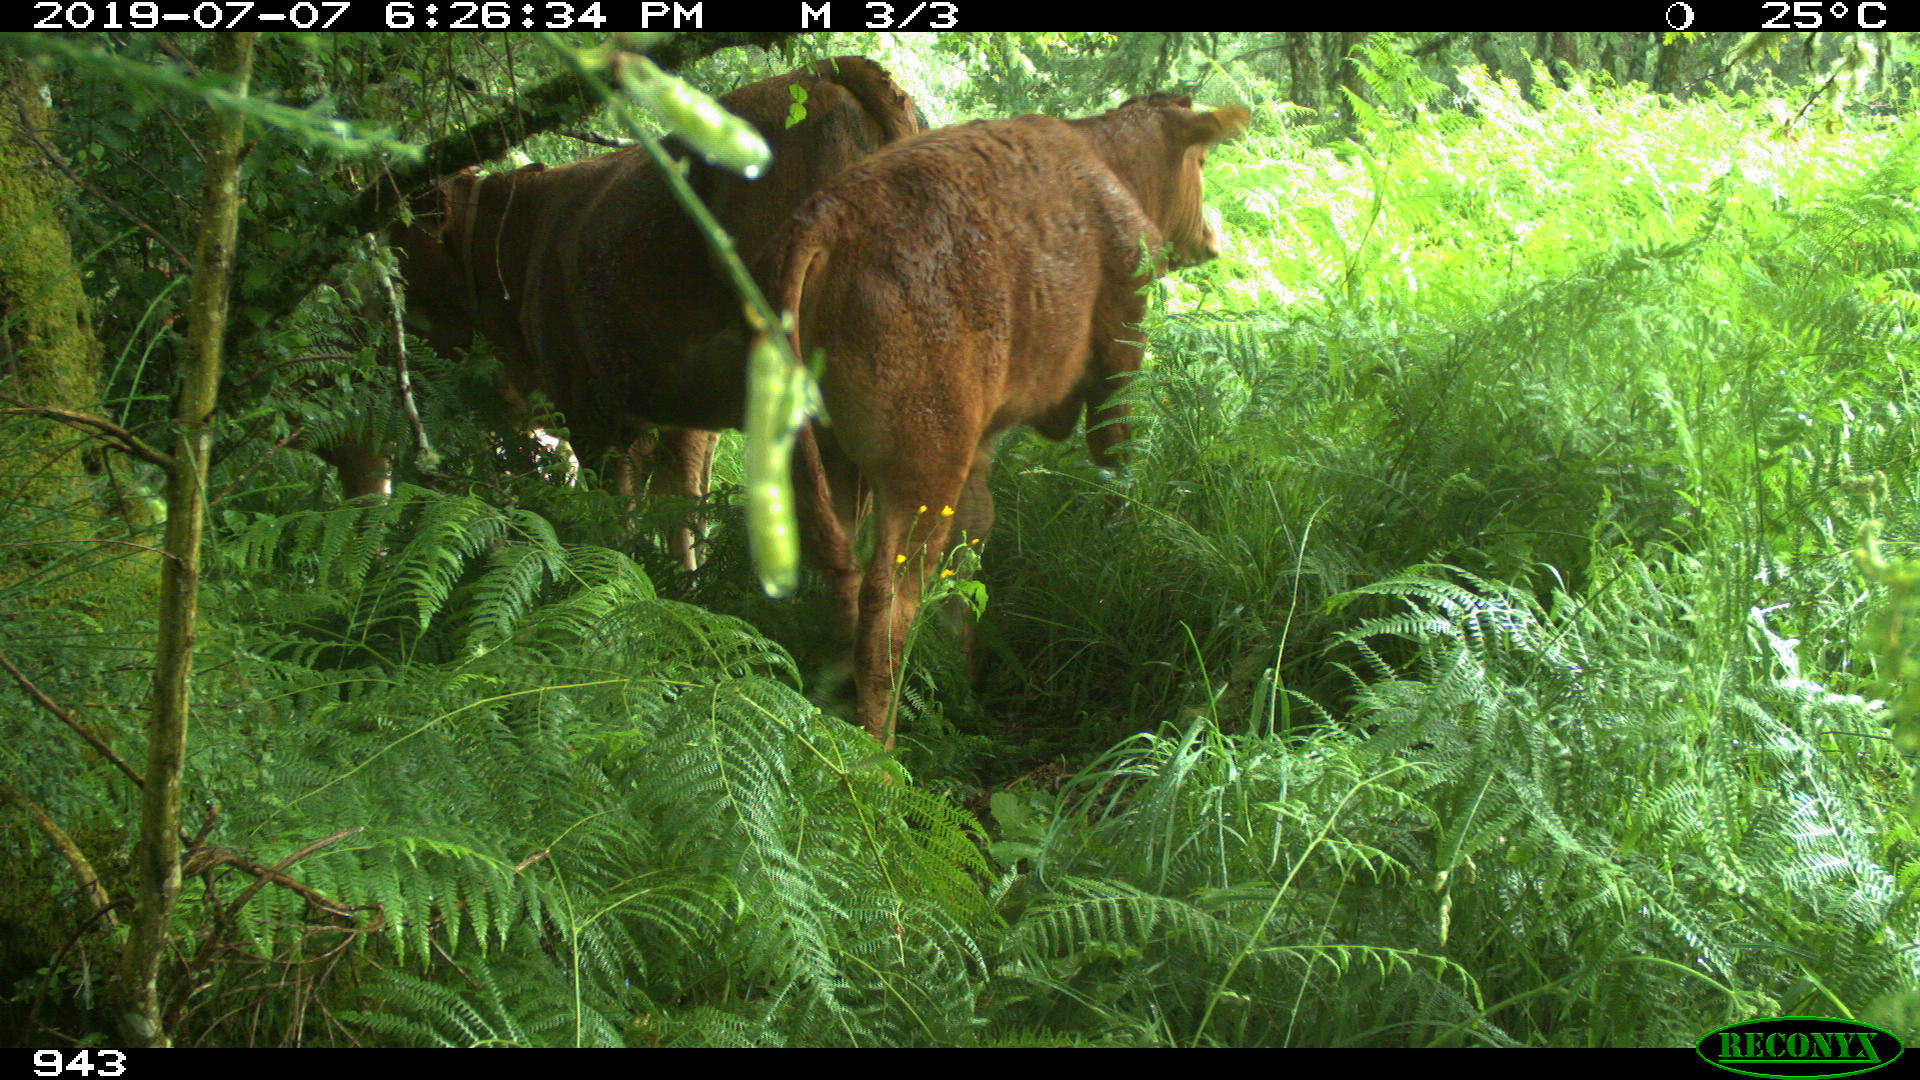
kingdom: Animalia
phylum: Chordata
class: Mammalia
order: Artiodactyla
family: Bovidae
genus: Bos
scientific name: Bos taurus
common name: Domesticated cattle
